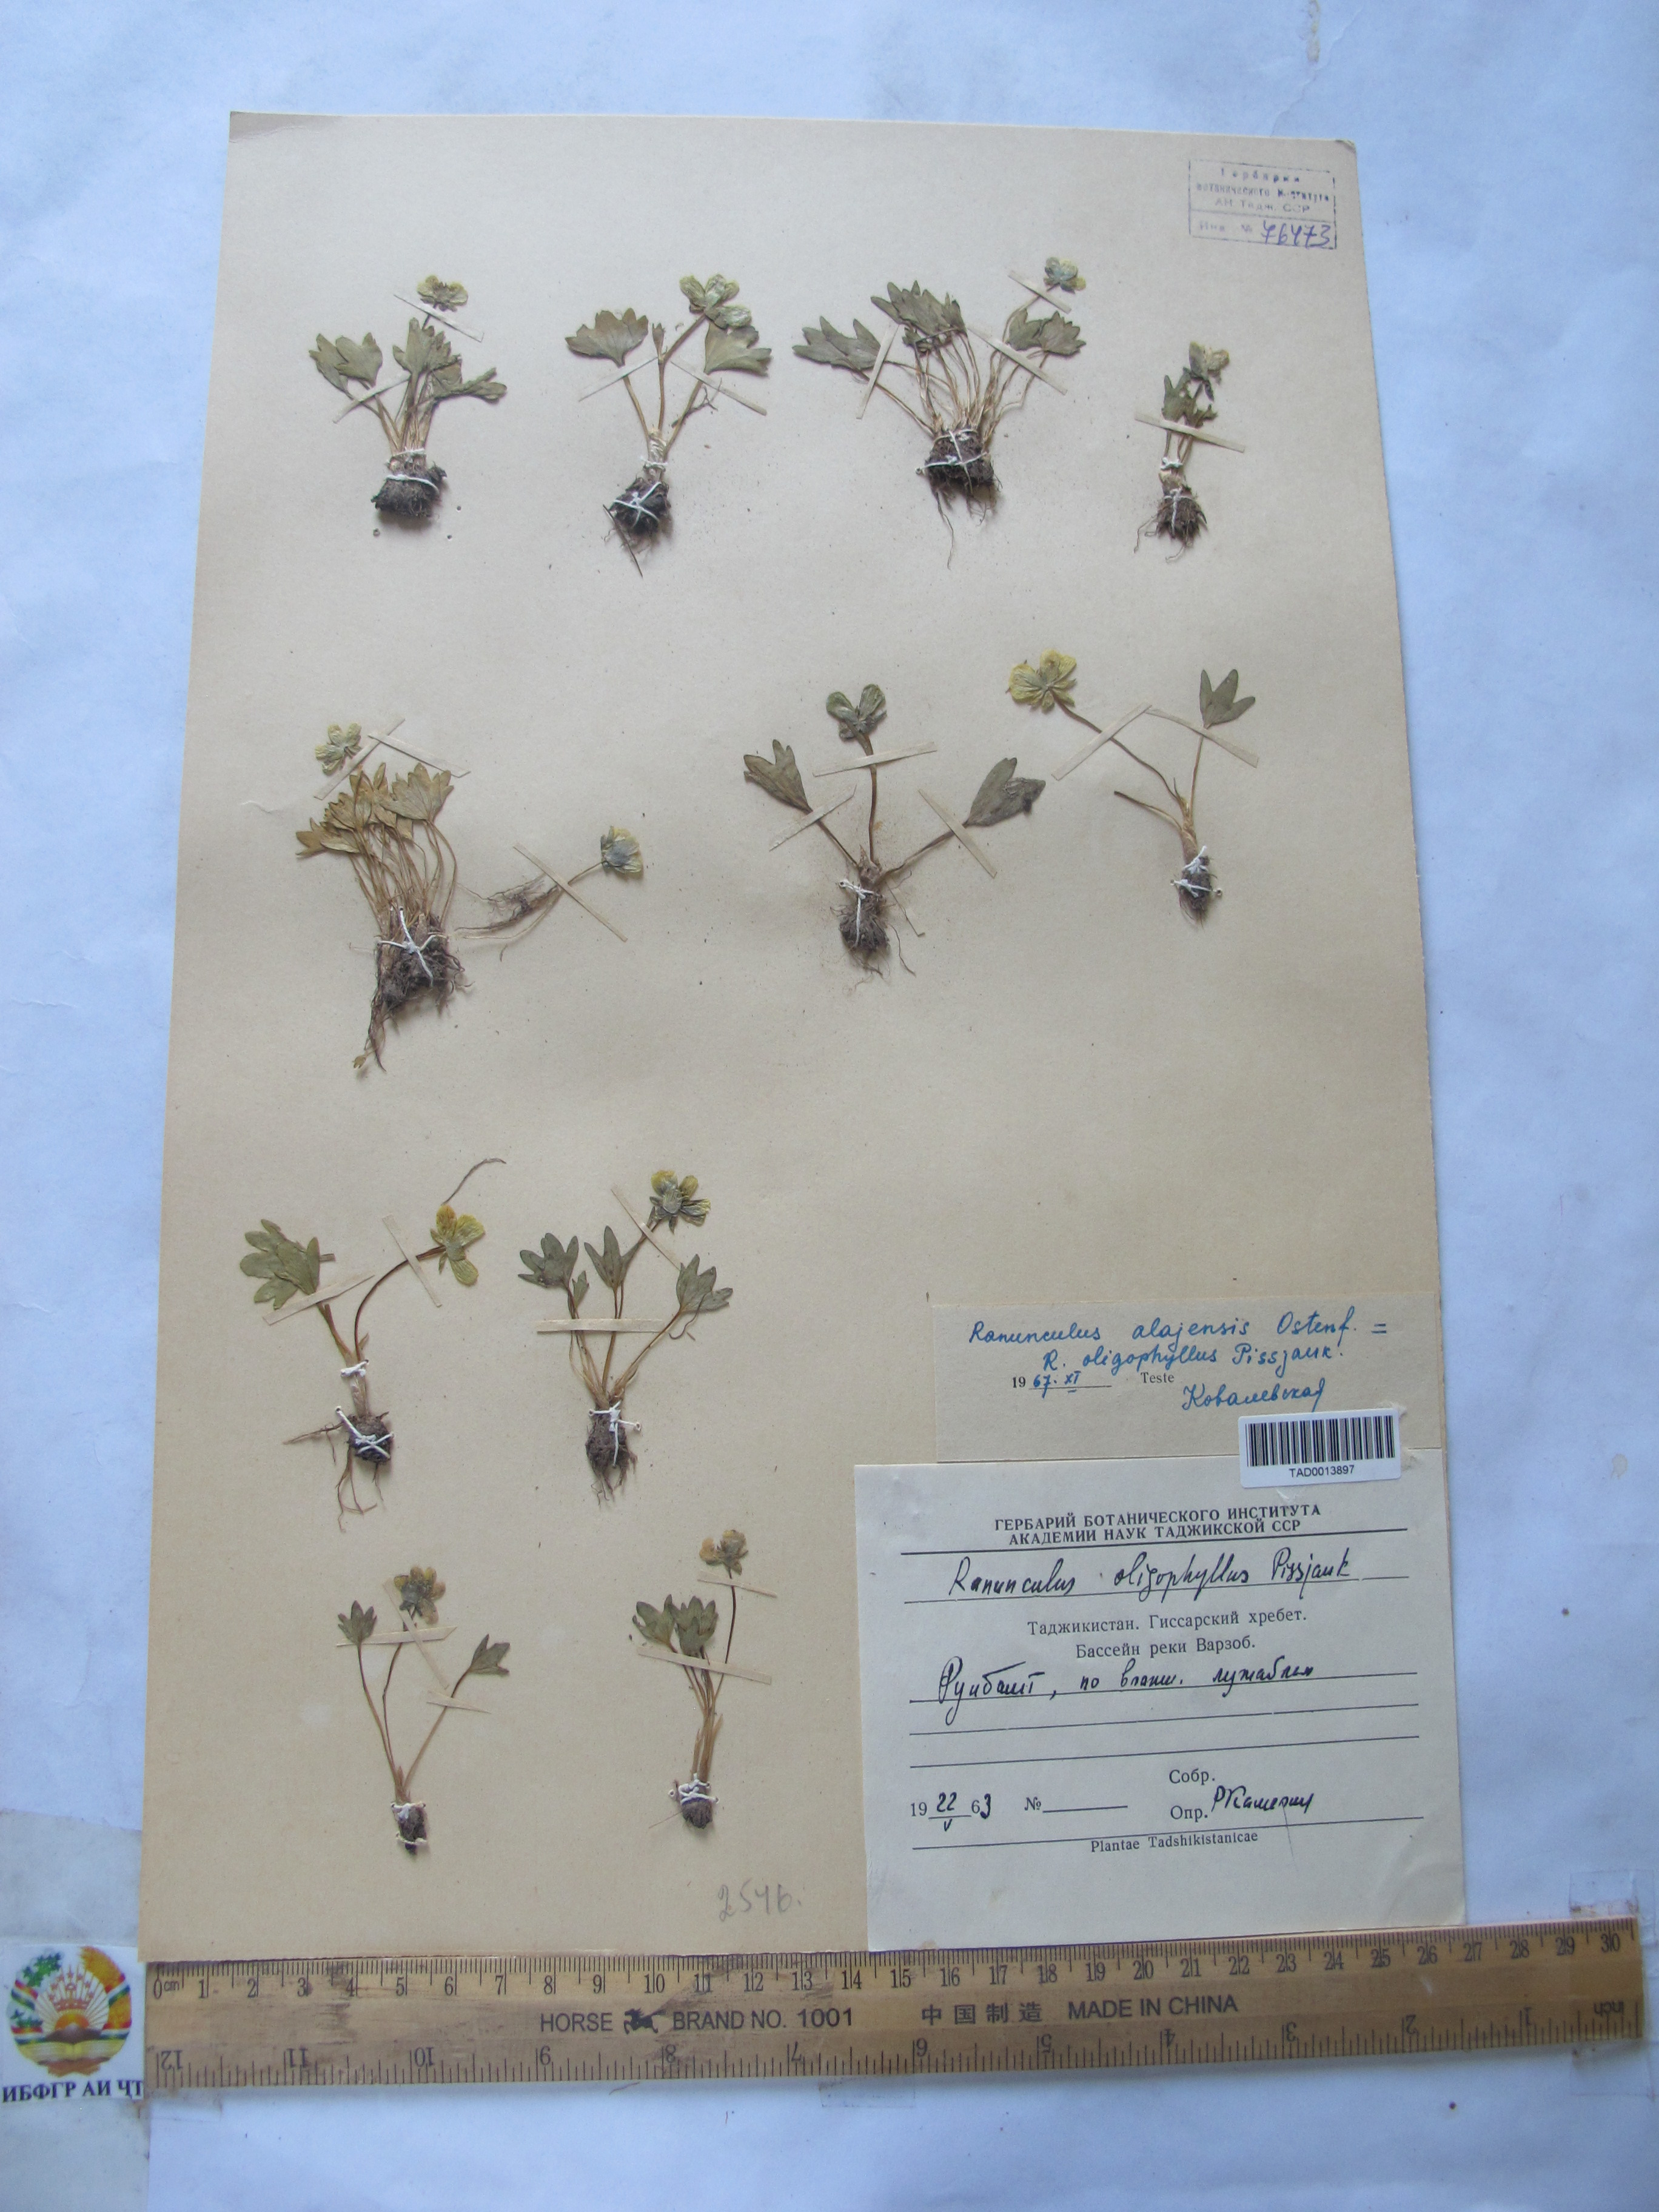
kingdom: Plantae
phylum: Tracheophyta
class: Magnoliopsida
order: Ranunculales
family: Ranunculaceae
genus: Ranunculus
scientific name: Ranunculus alaiensis
